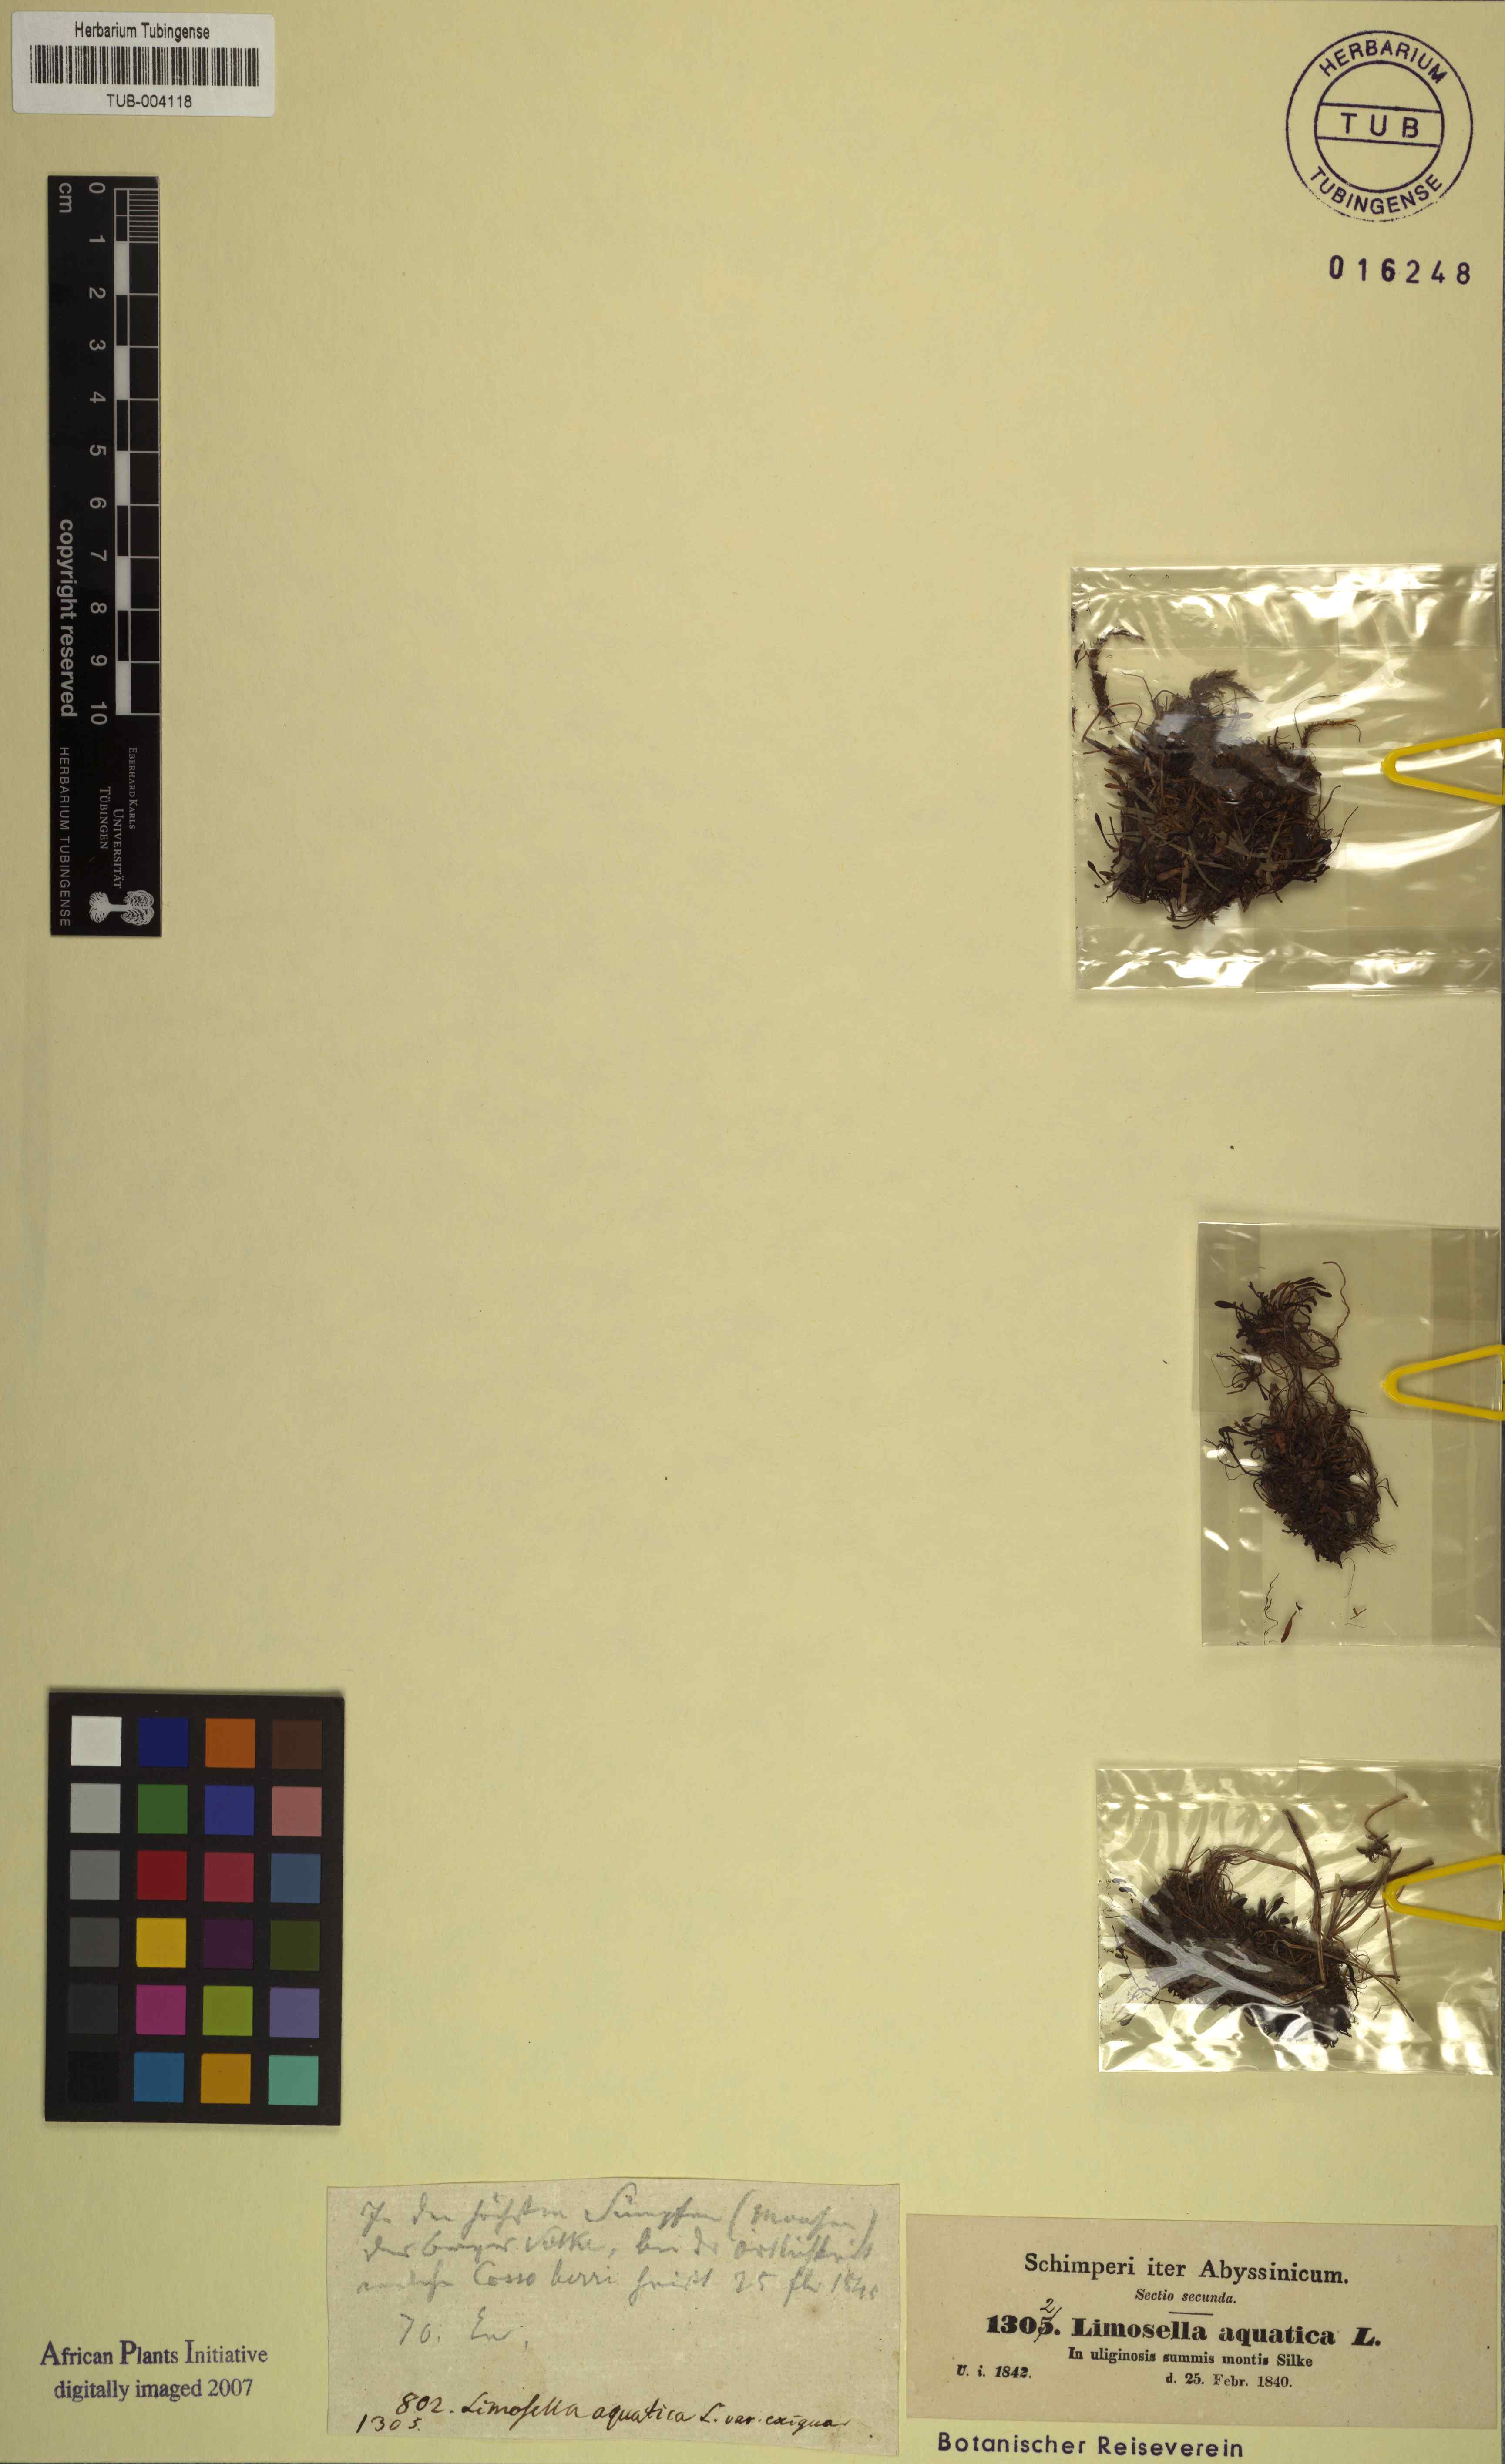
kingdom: Plantae
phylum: Tracheophyta
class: Magnoliopsida
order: Asterales
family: Asteraceae
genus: Anaxeton
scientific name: Anaxeton arborescens
